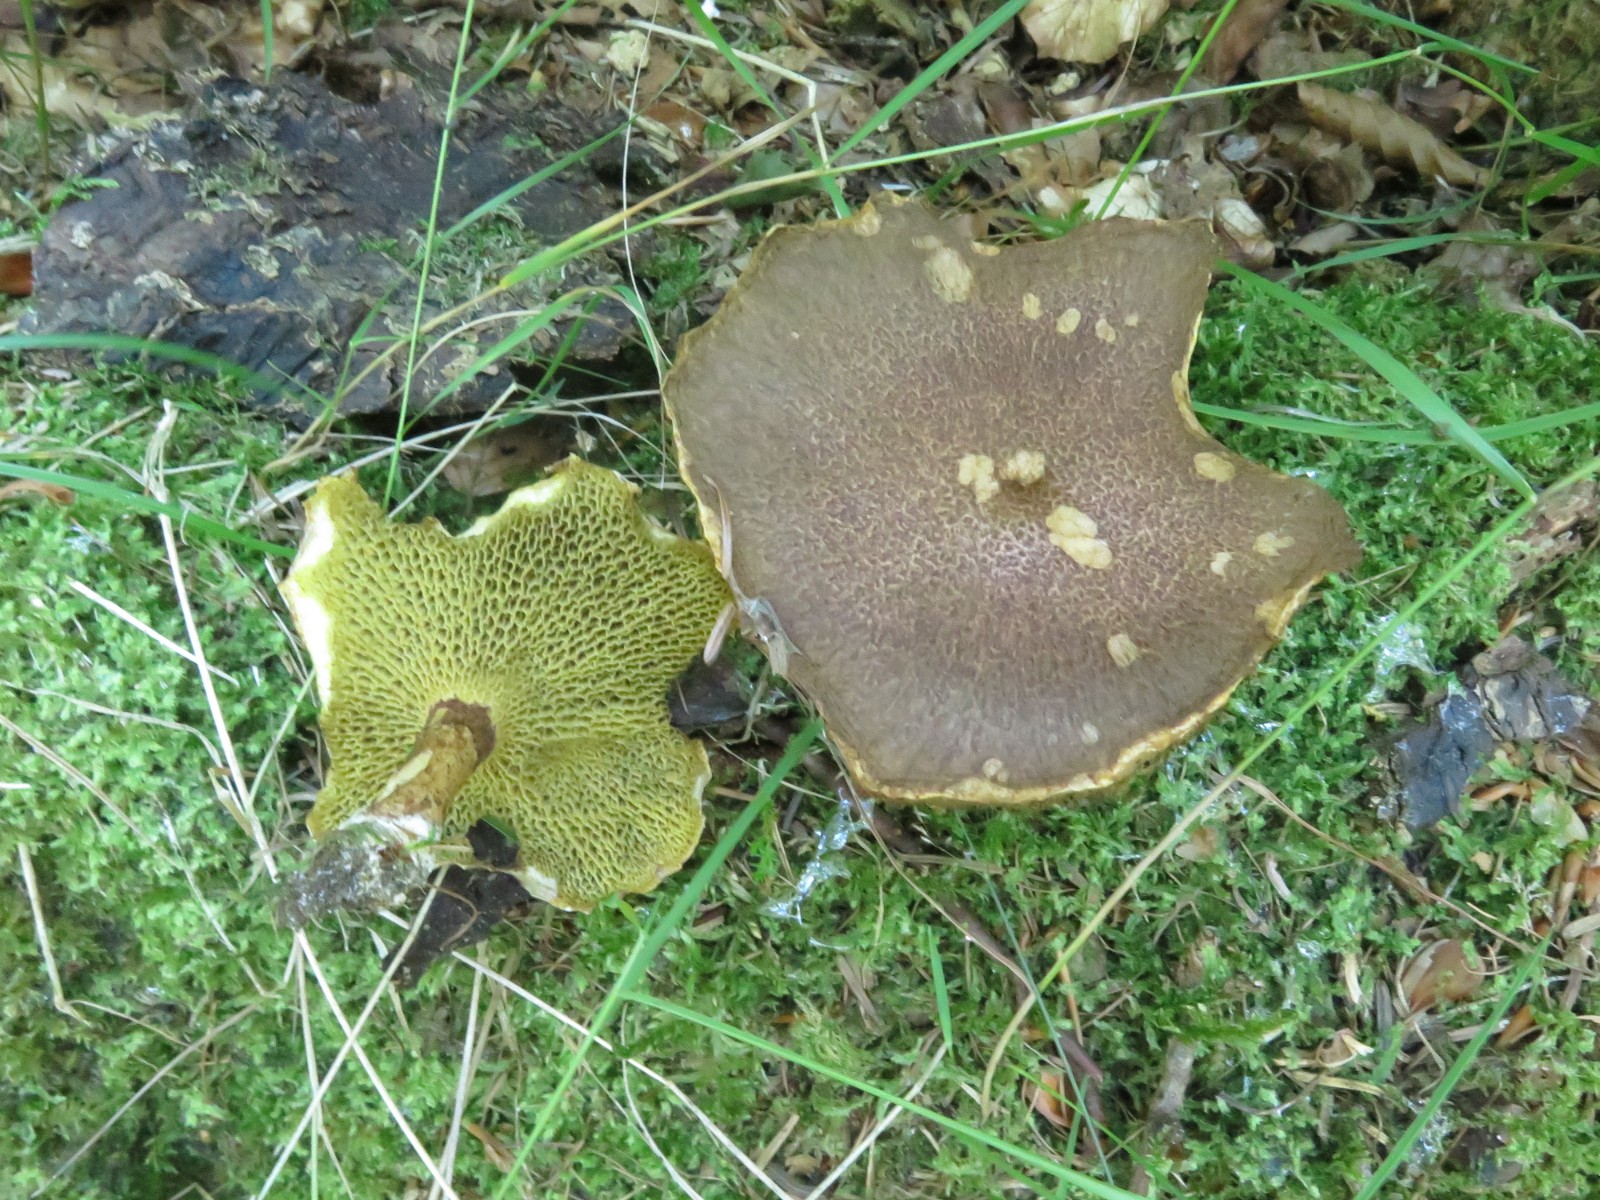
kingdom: Fungi
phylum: Basidiomycota
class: Agaricomycetes
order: Boletales
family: Suillaceae
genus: Suillus
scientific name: Suillus bovinus
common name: grovporet slimrørhat
